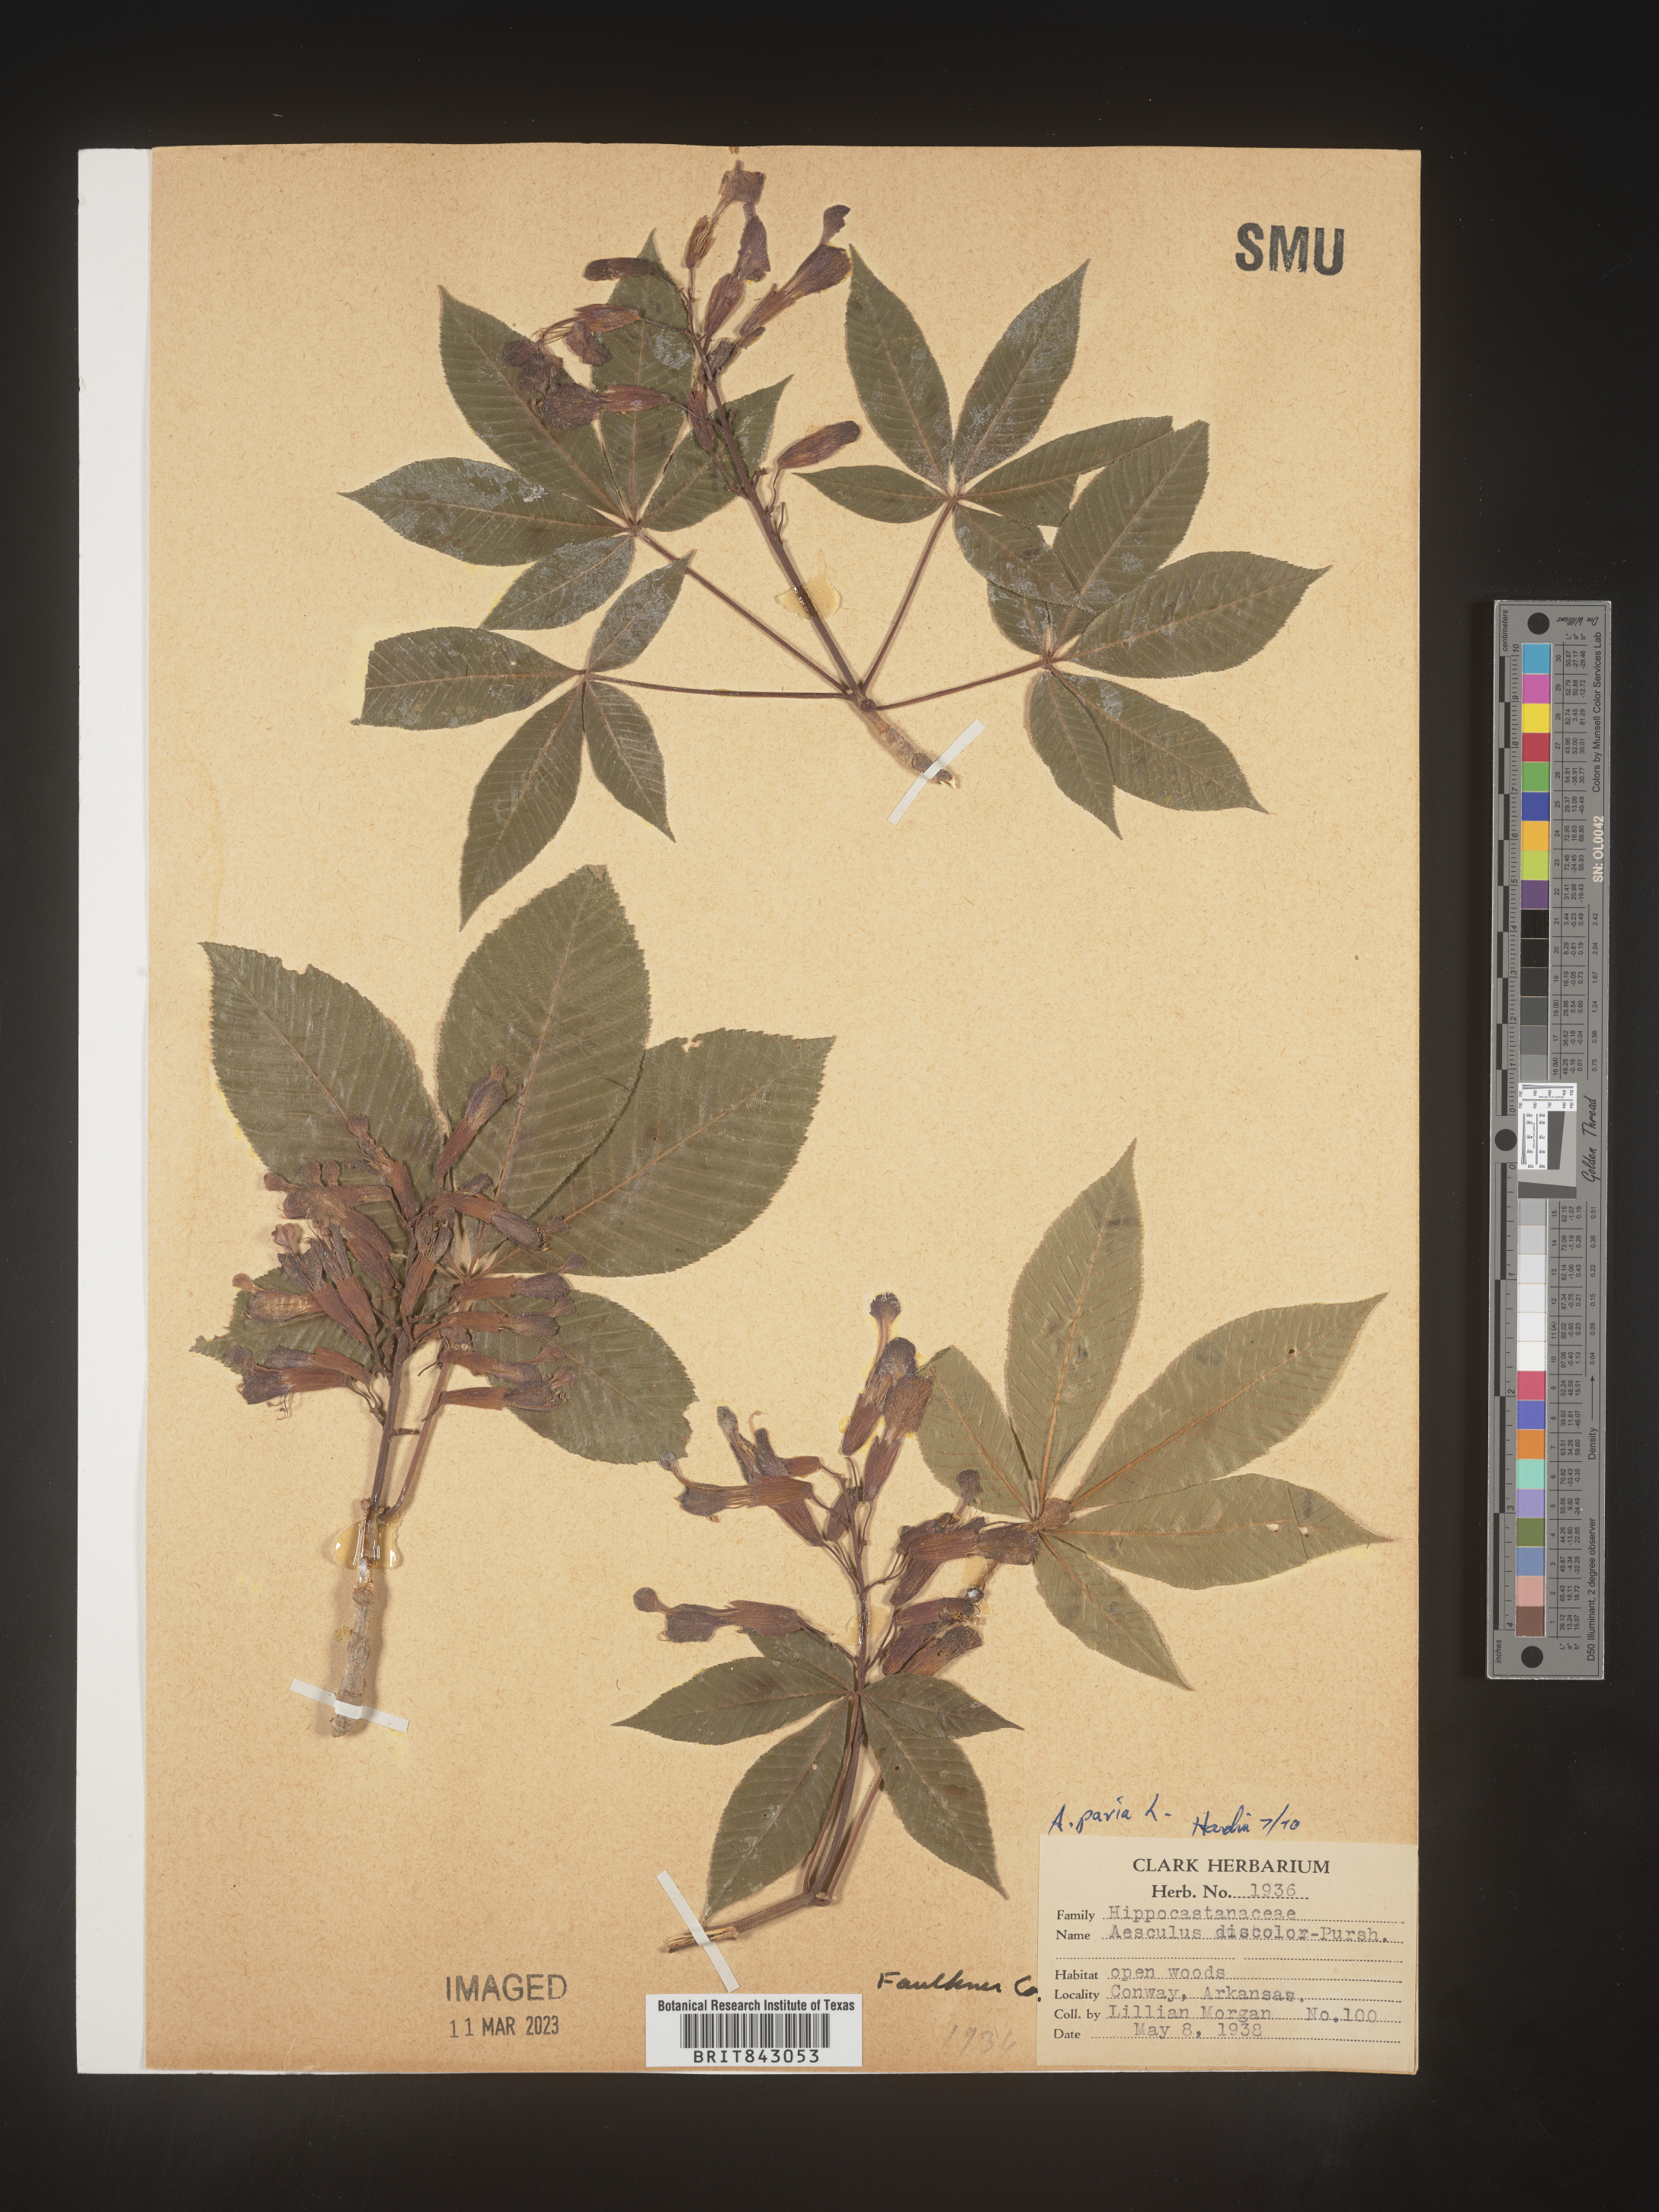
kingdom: Plantae
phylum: Tracheophyta
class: Magnoliopsida
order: Sapindales
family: Sapindaceae
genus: Aesculus
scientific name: Aesculus pavia
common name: Red buckeye
